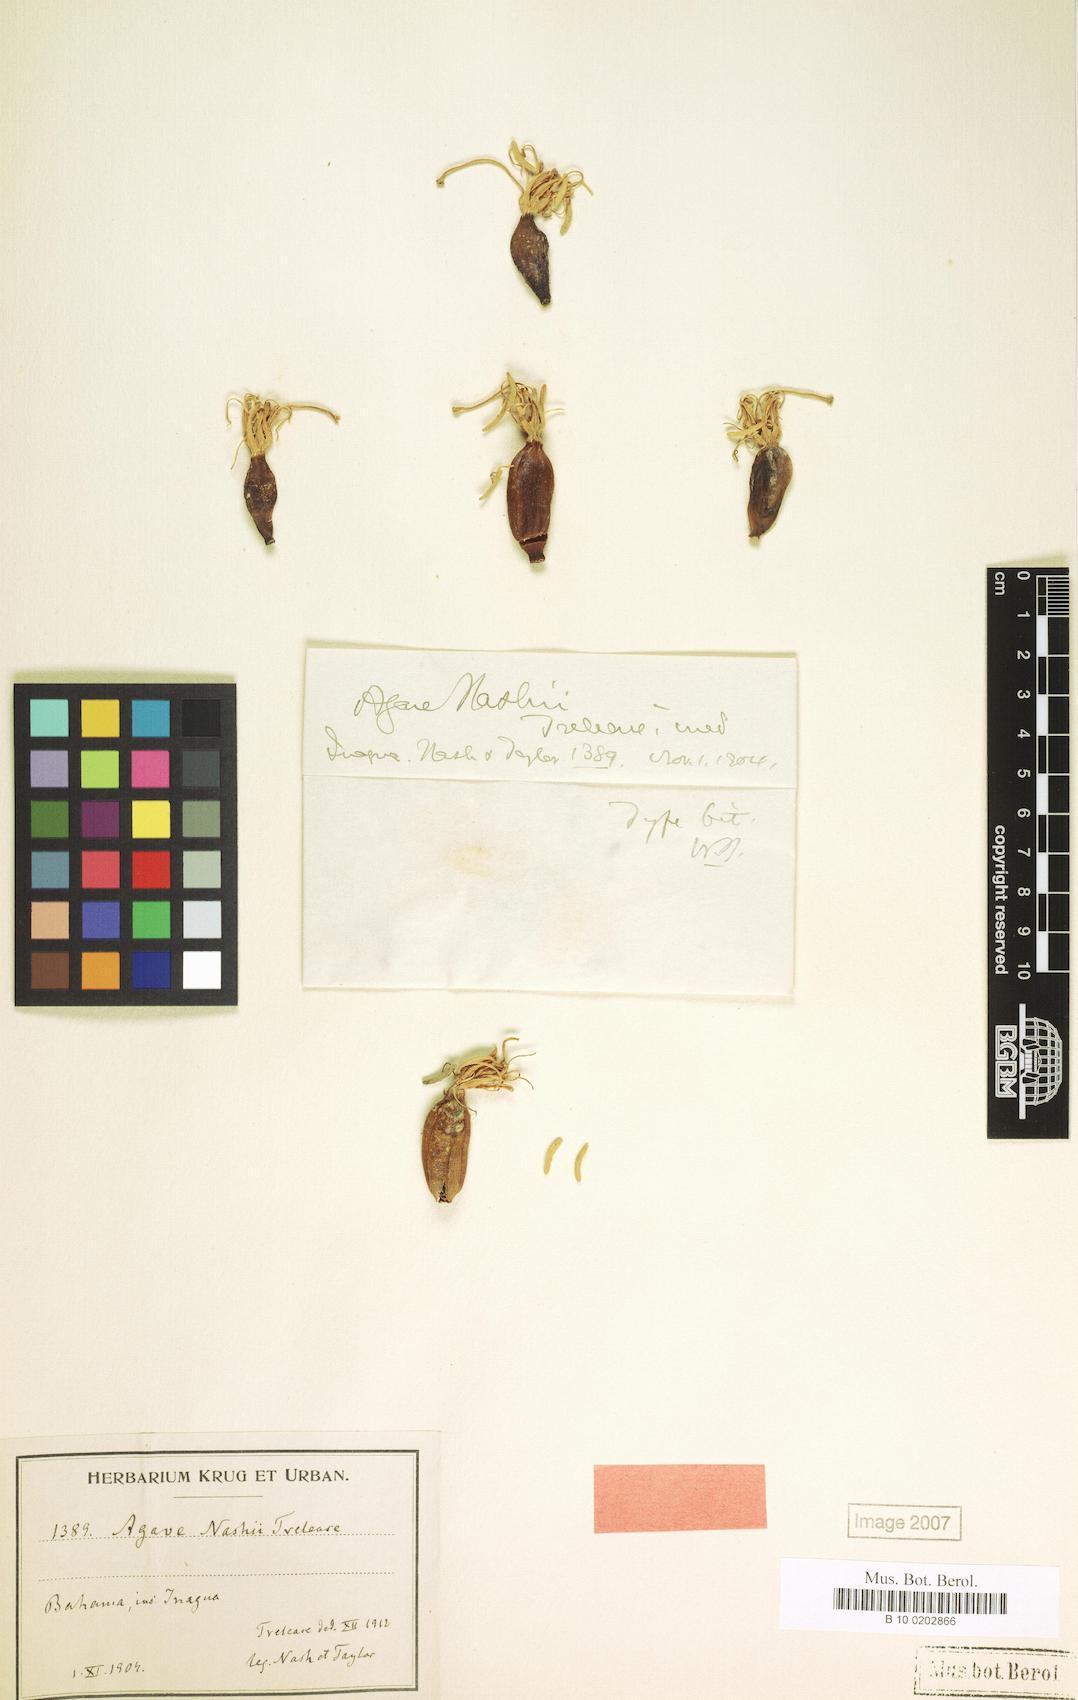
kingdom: Plantae
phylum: Tracheophyta
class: Liliopsida
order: Asparagales
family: Asparagaceae
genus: Agave
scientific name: Agave nashii
